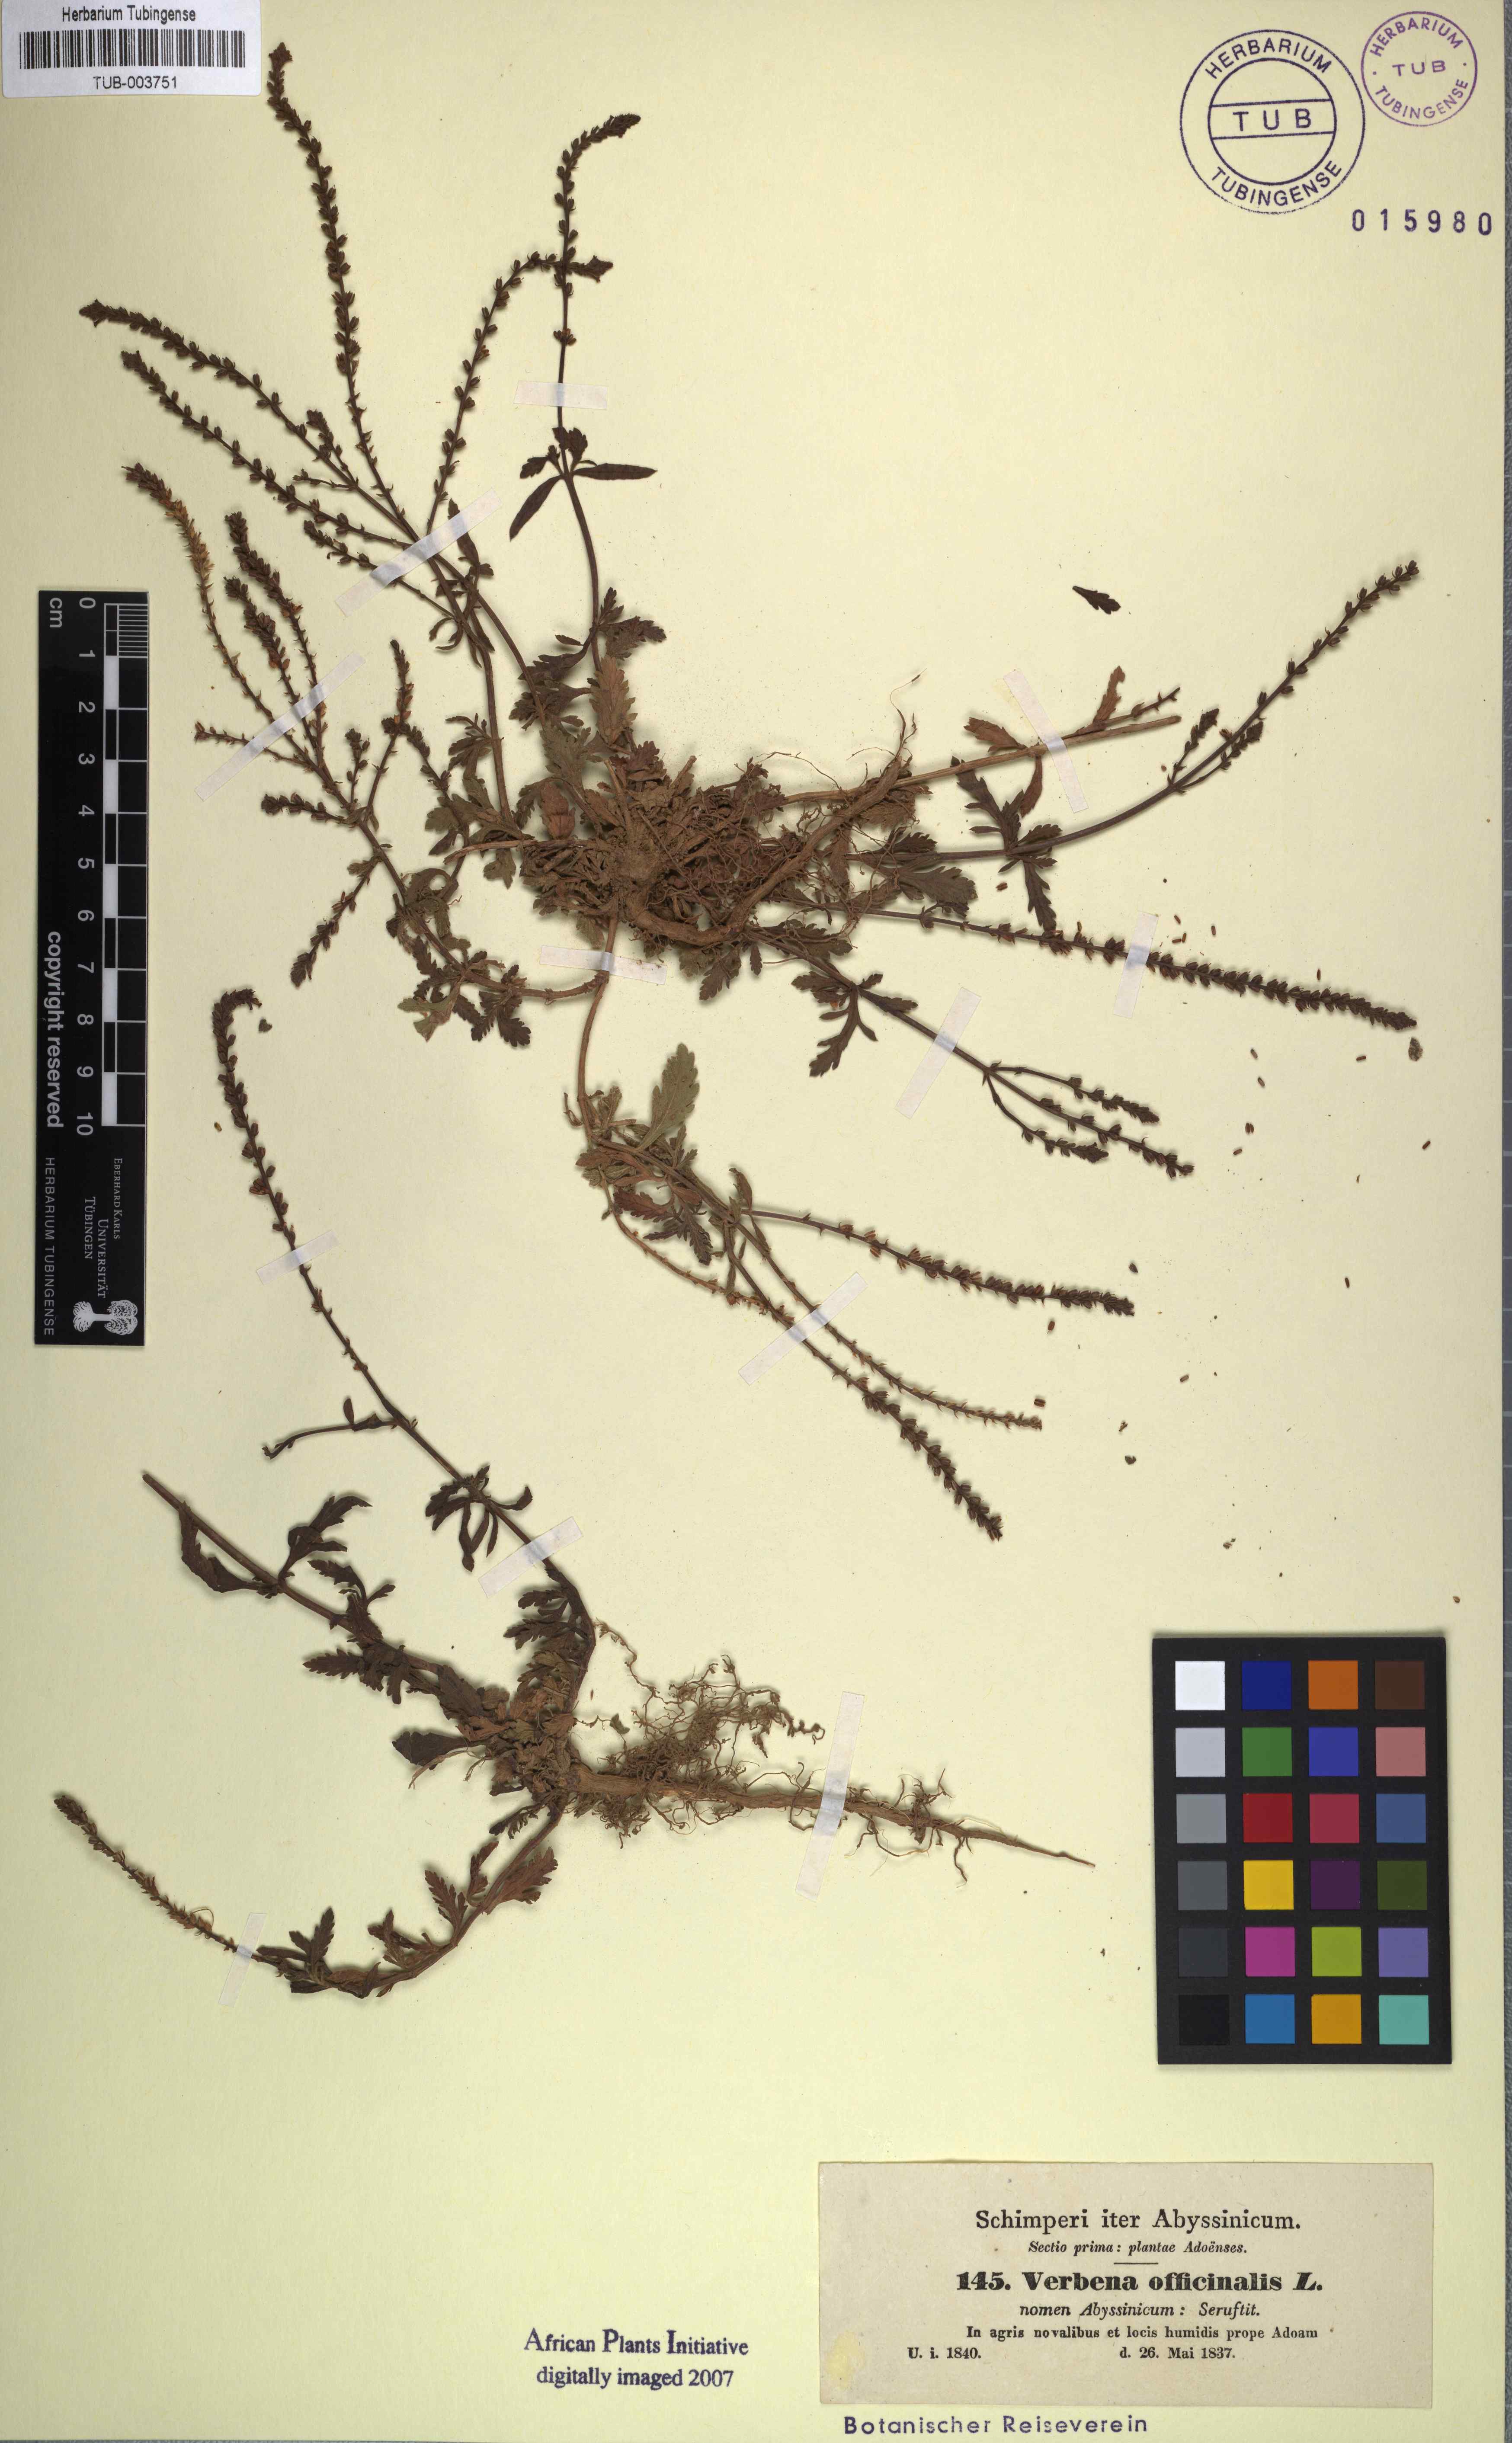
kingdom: Plantae
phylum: Tracheophyta
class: Magnoliopsida
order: Lamiales
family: Verbenaceae
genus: Verbena
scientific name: Verbena officinalis
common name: Vervain
